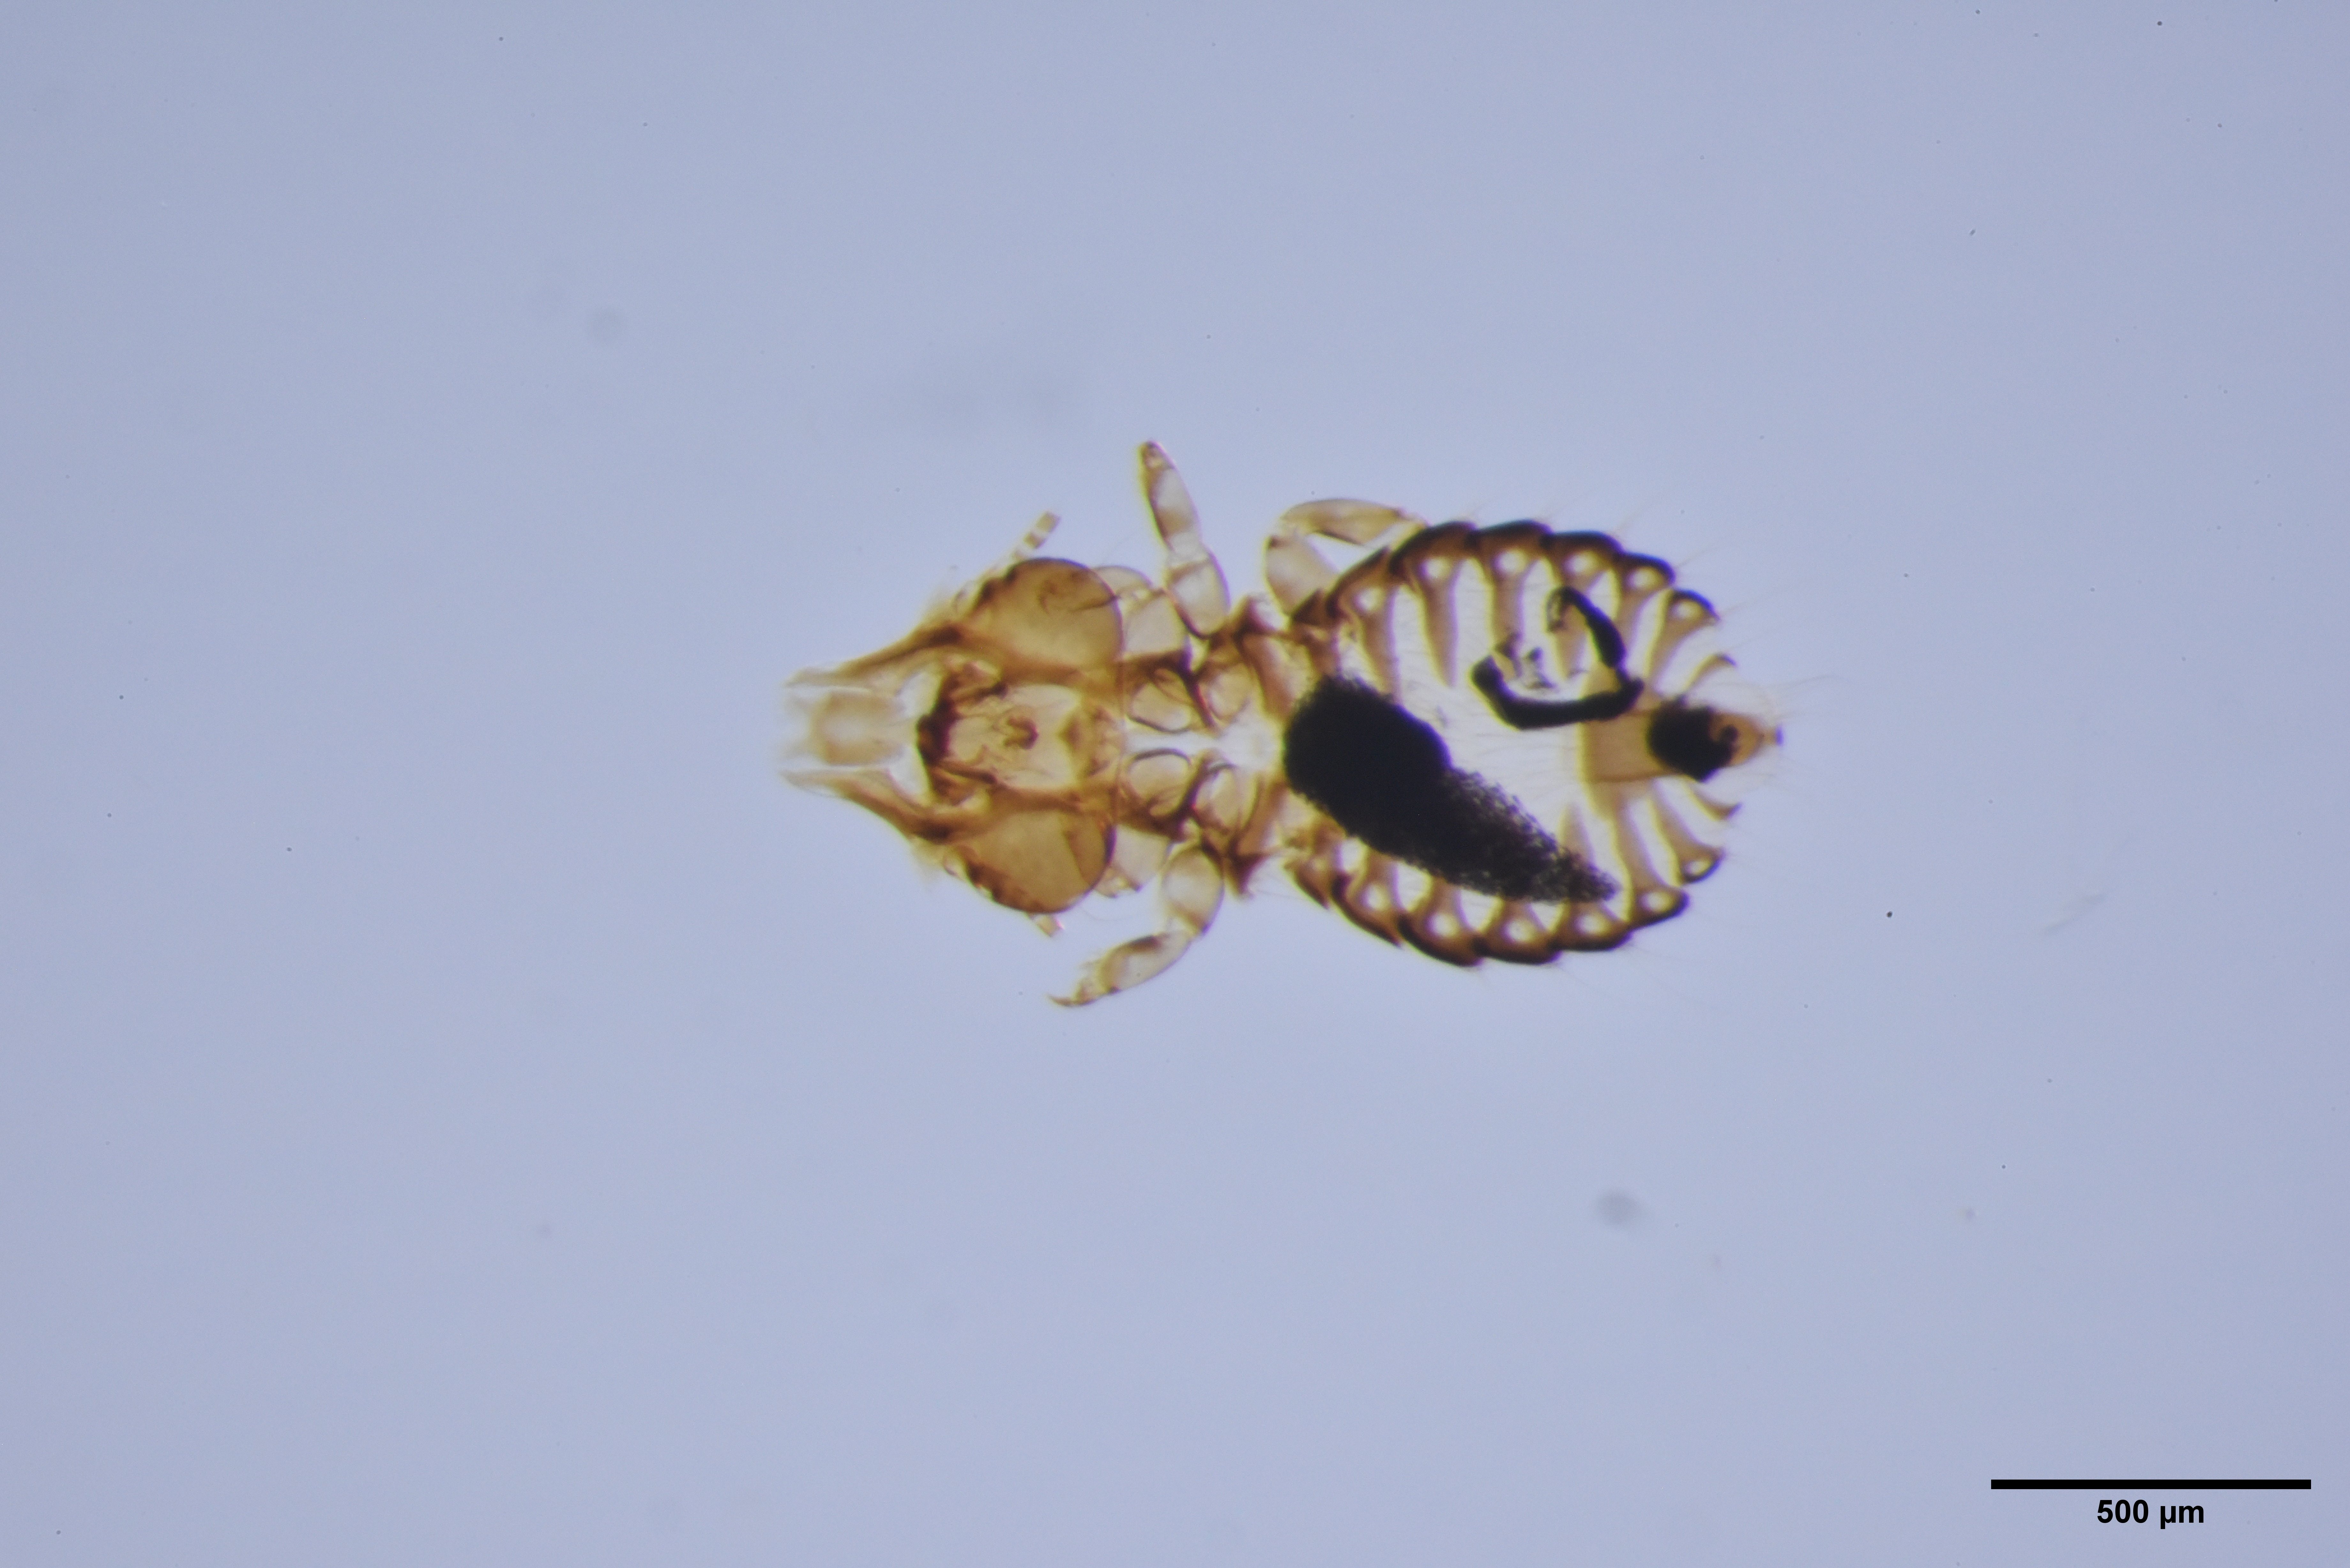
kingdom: Animalia
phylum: Arthropoda
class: Insecta
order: Psocodea
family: Philopteridae
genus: Sturnidoecus
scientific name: Sturnidoecus sturni
